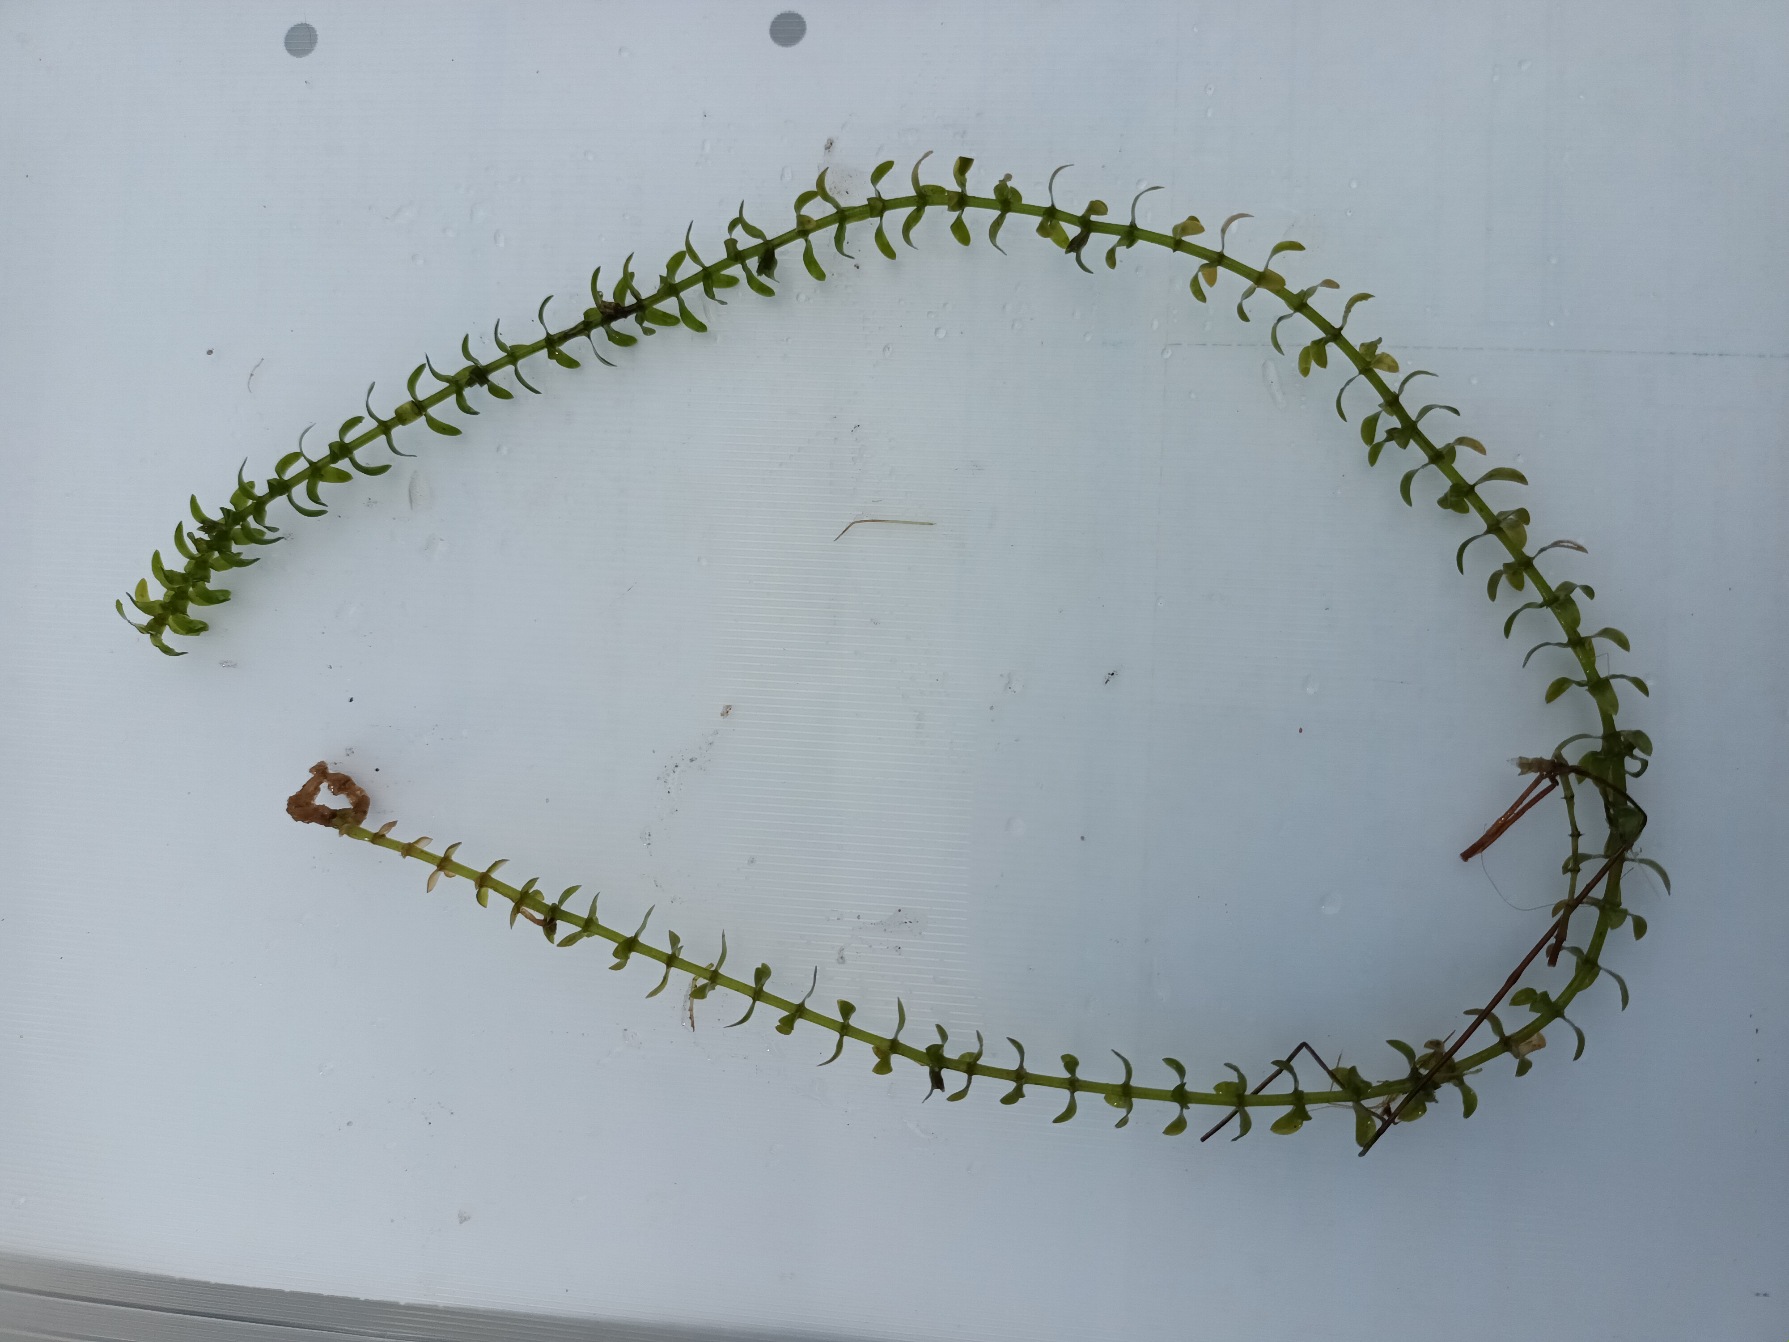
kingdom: Plantae
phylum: Tracheophyta
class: Liliopsida
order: Alismatales
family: Hydrocharitaceae
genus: Elodea
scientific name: Elodea canadensis
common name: Vandpest
